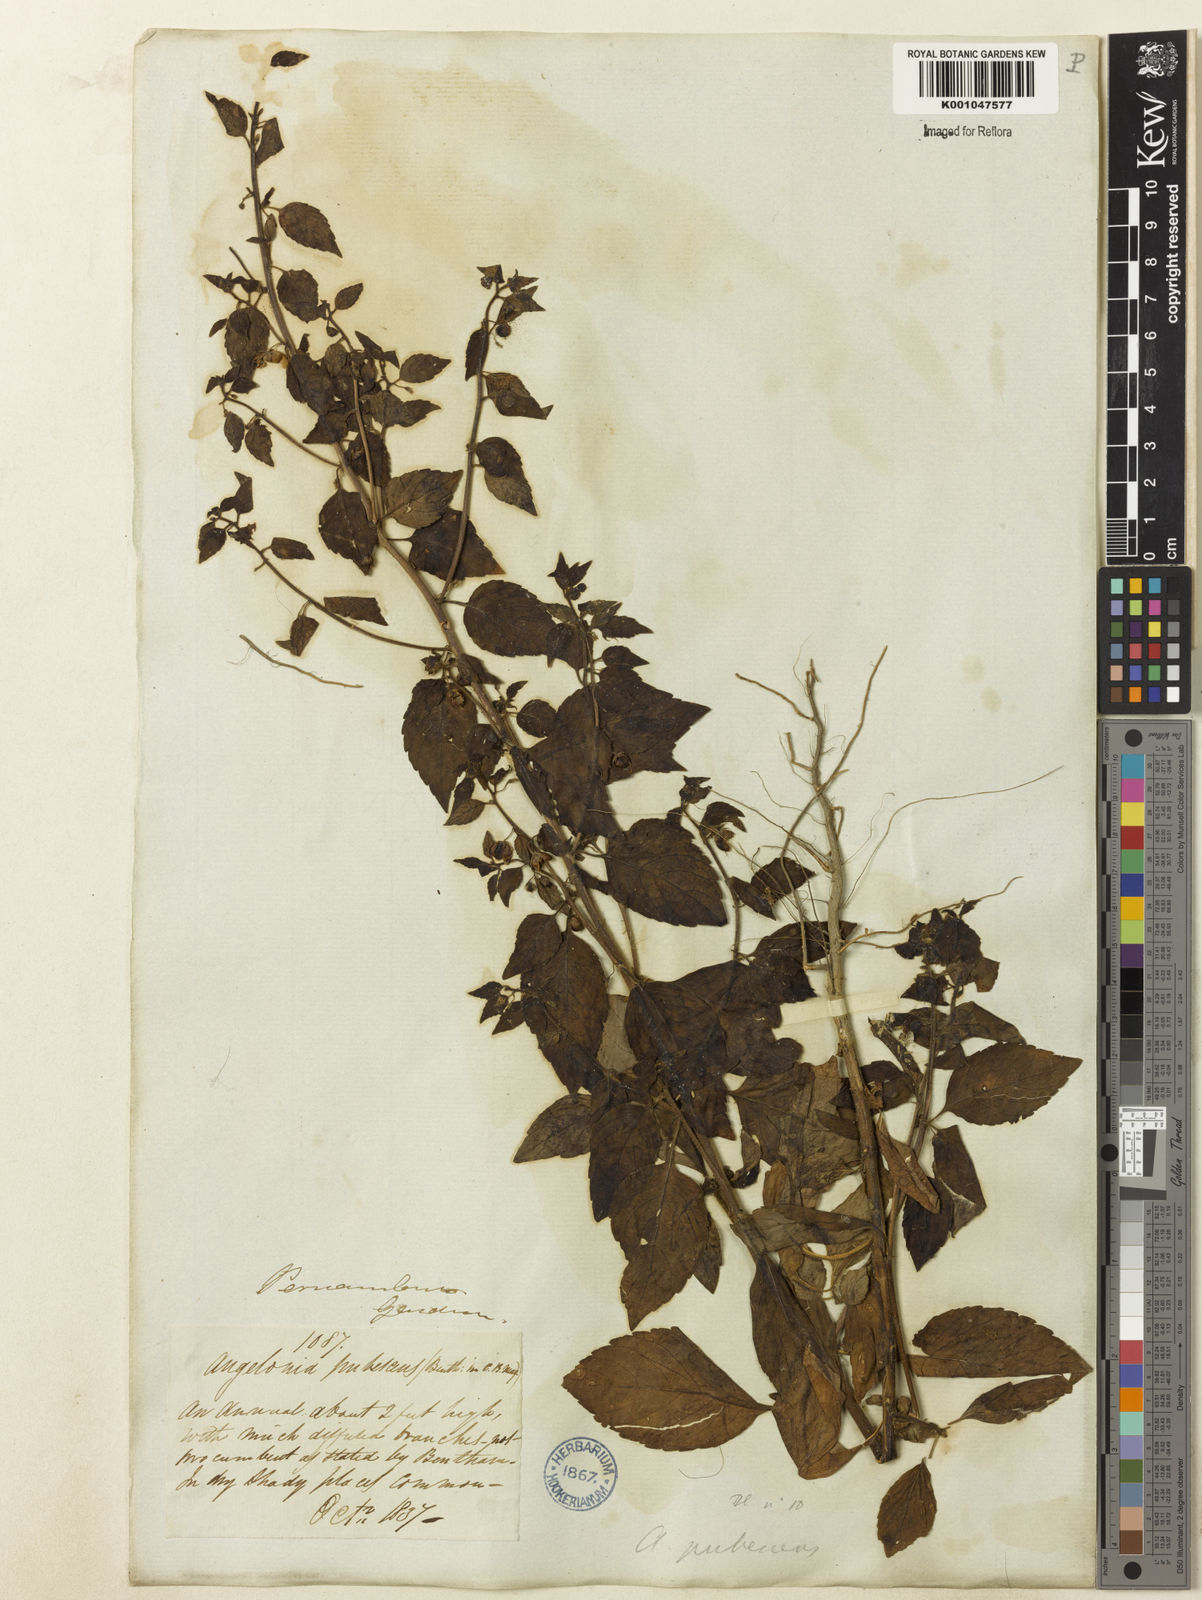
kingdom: Plantae
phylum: Tracheophyta
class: Magnoliopsida
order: Lamiales
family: Plantaginaceae
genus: Angelonia
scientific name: Angelonia pubescens
